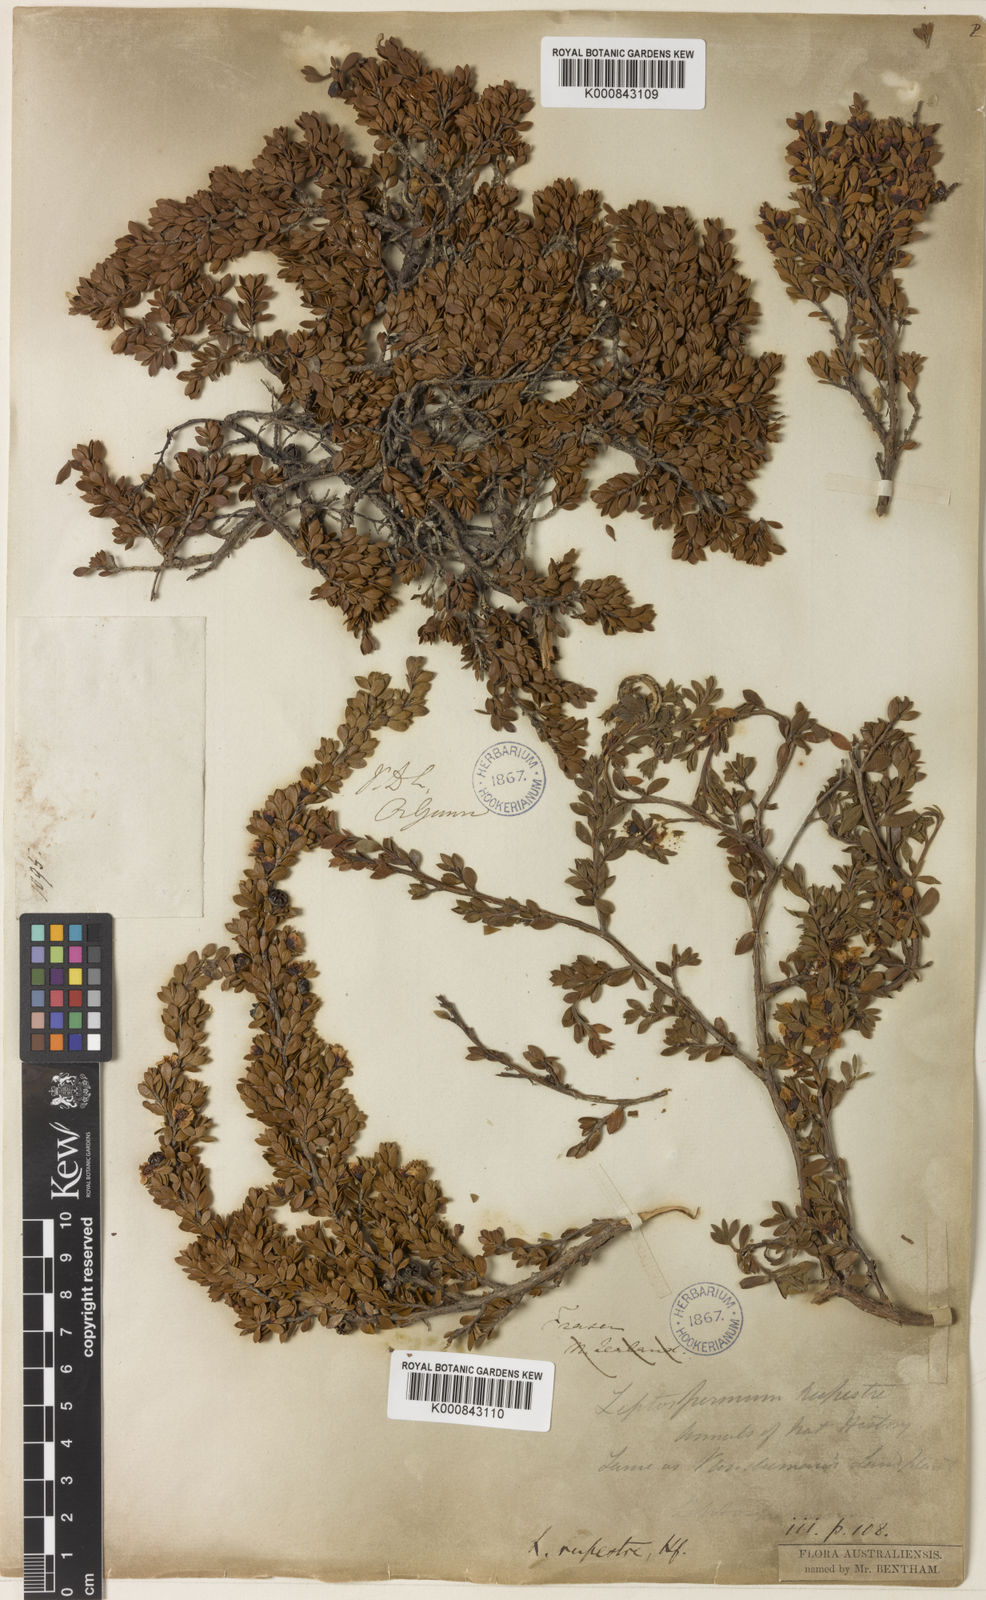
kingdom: Plantae
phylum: Tracheophyta
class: Magnoliopsida
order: Myrtales
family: Myrtaceae
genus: Leptospermum
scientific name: Leptospermum rupestre
